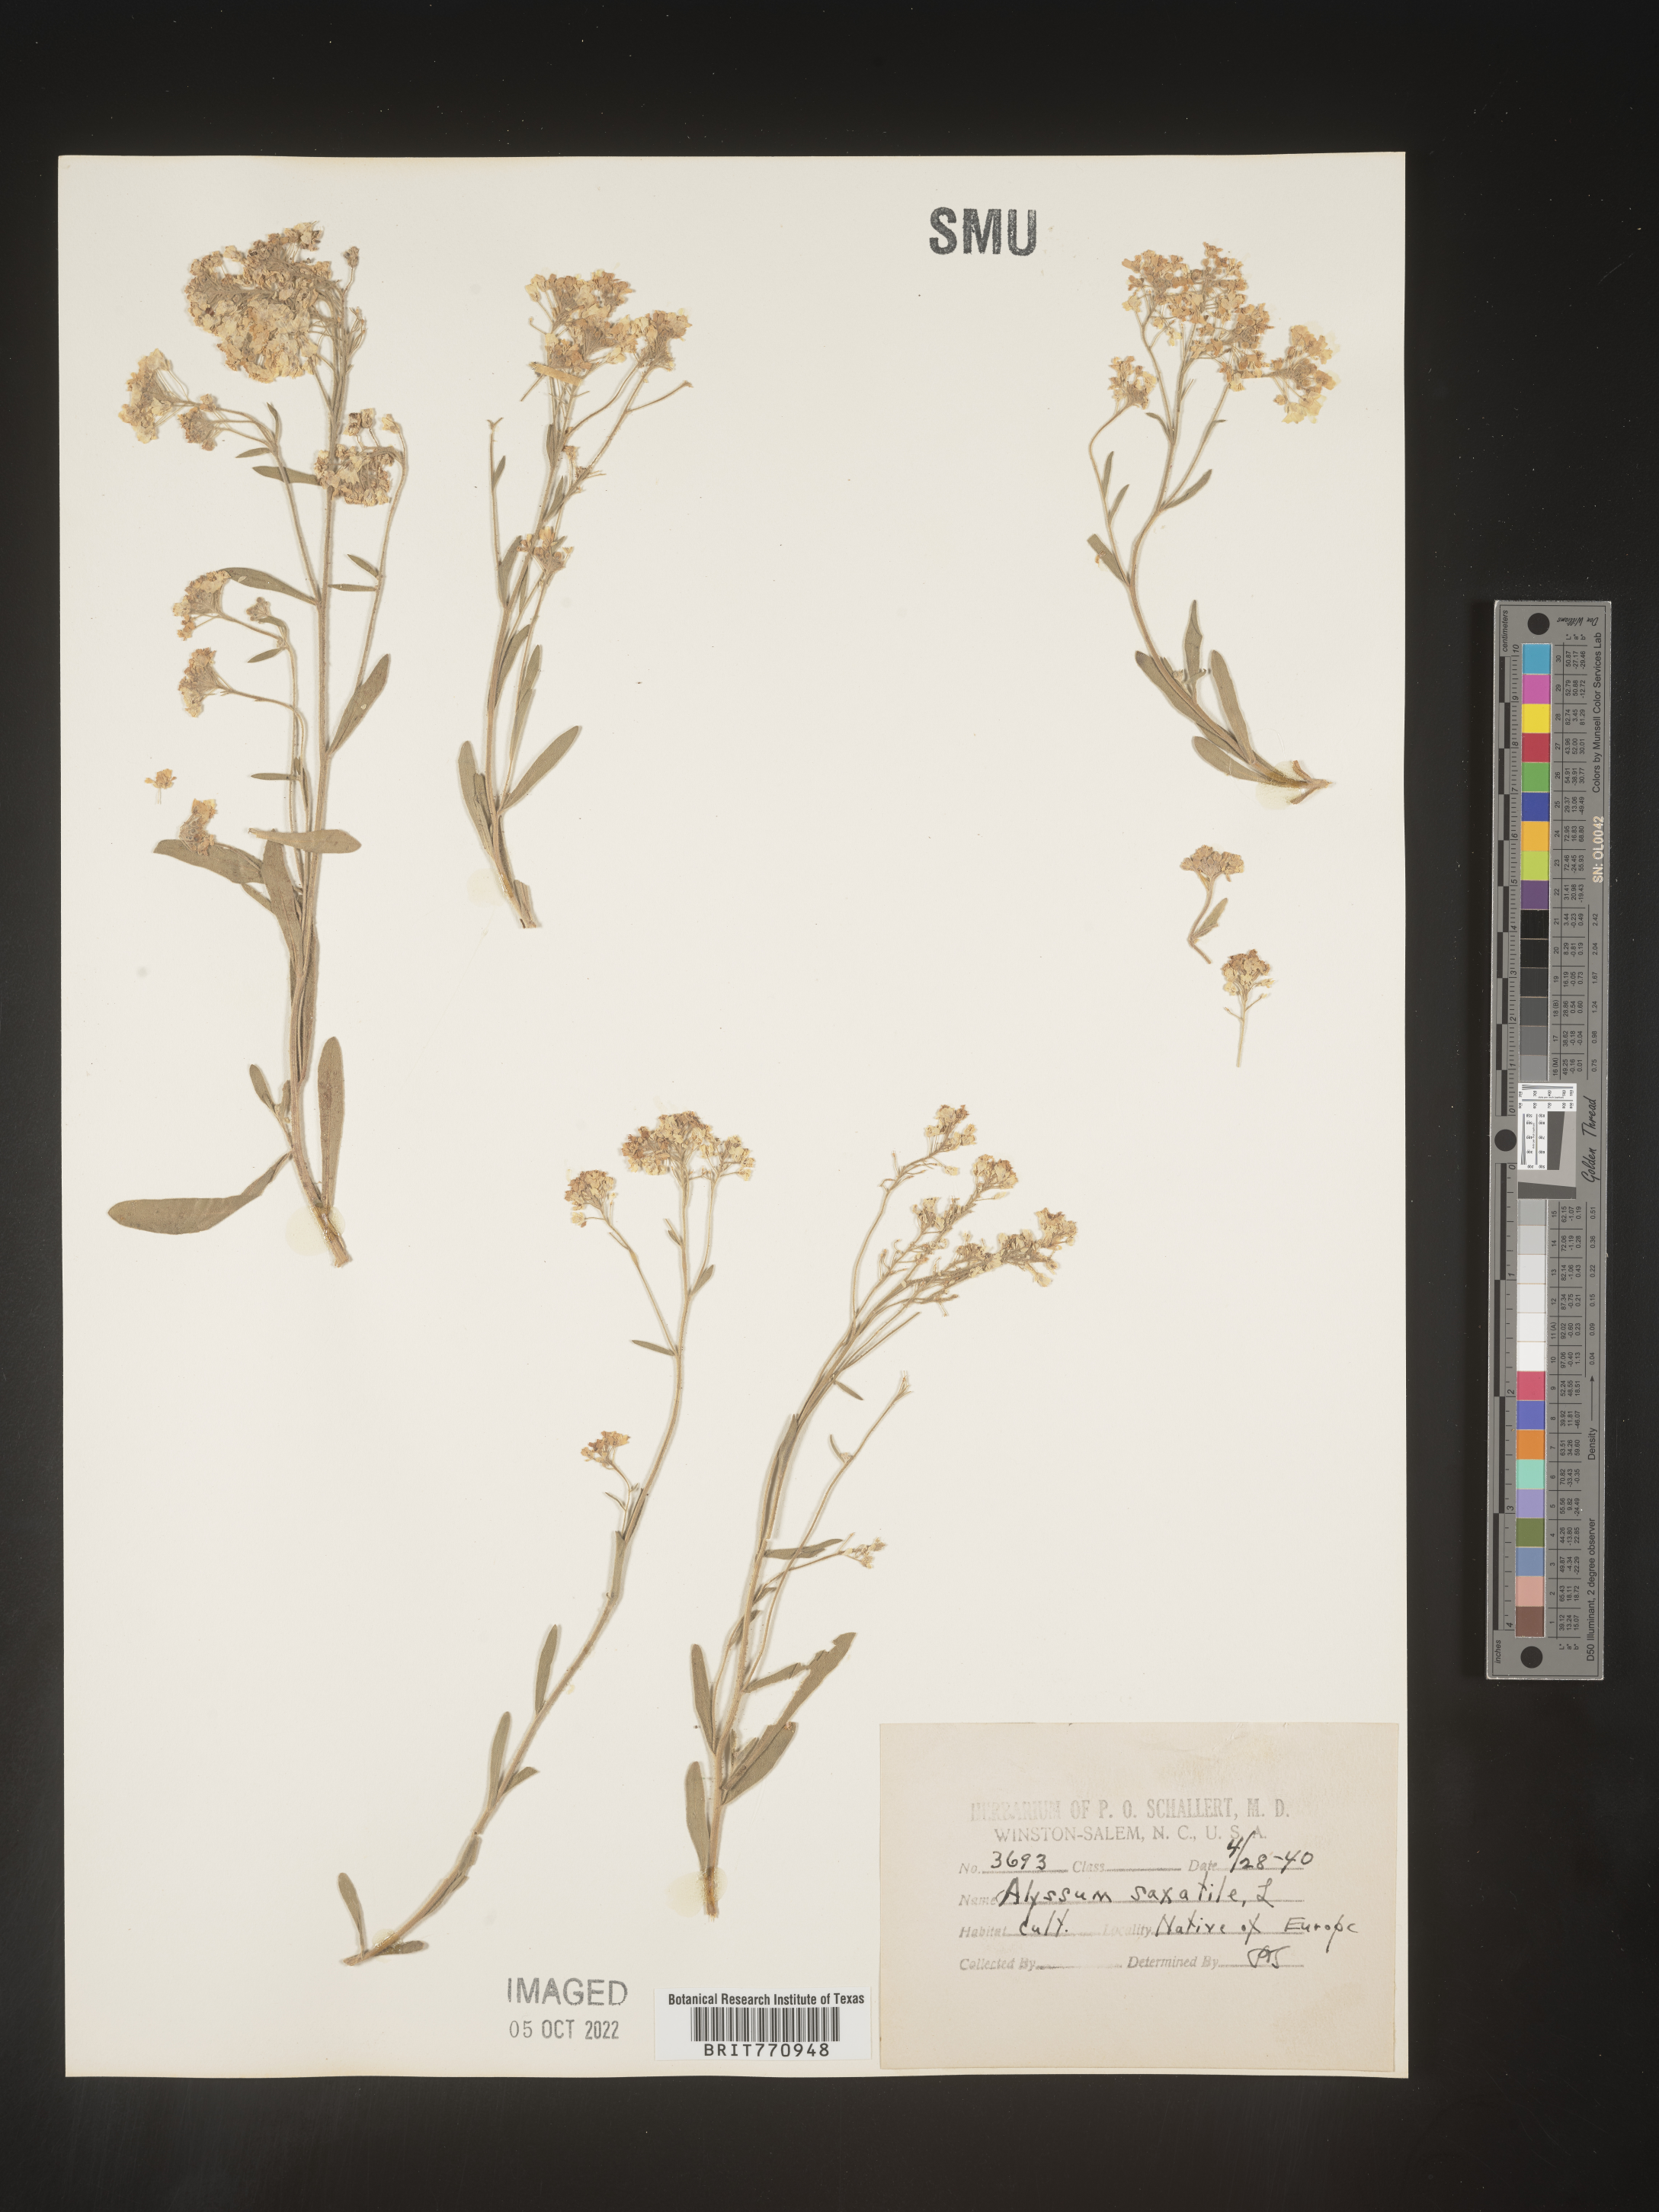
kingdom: Plantae
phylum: Tracheophyta
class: Magnoliopsida
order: Brassicales
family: Brassicaceae
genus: Alyssum
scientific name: Alyssum
